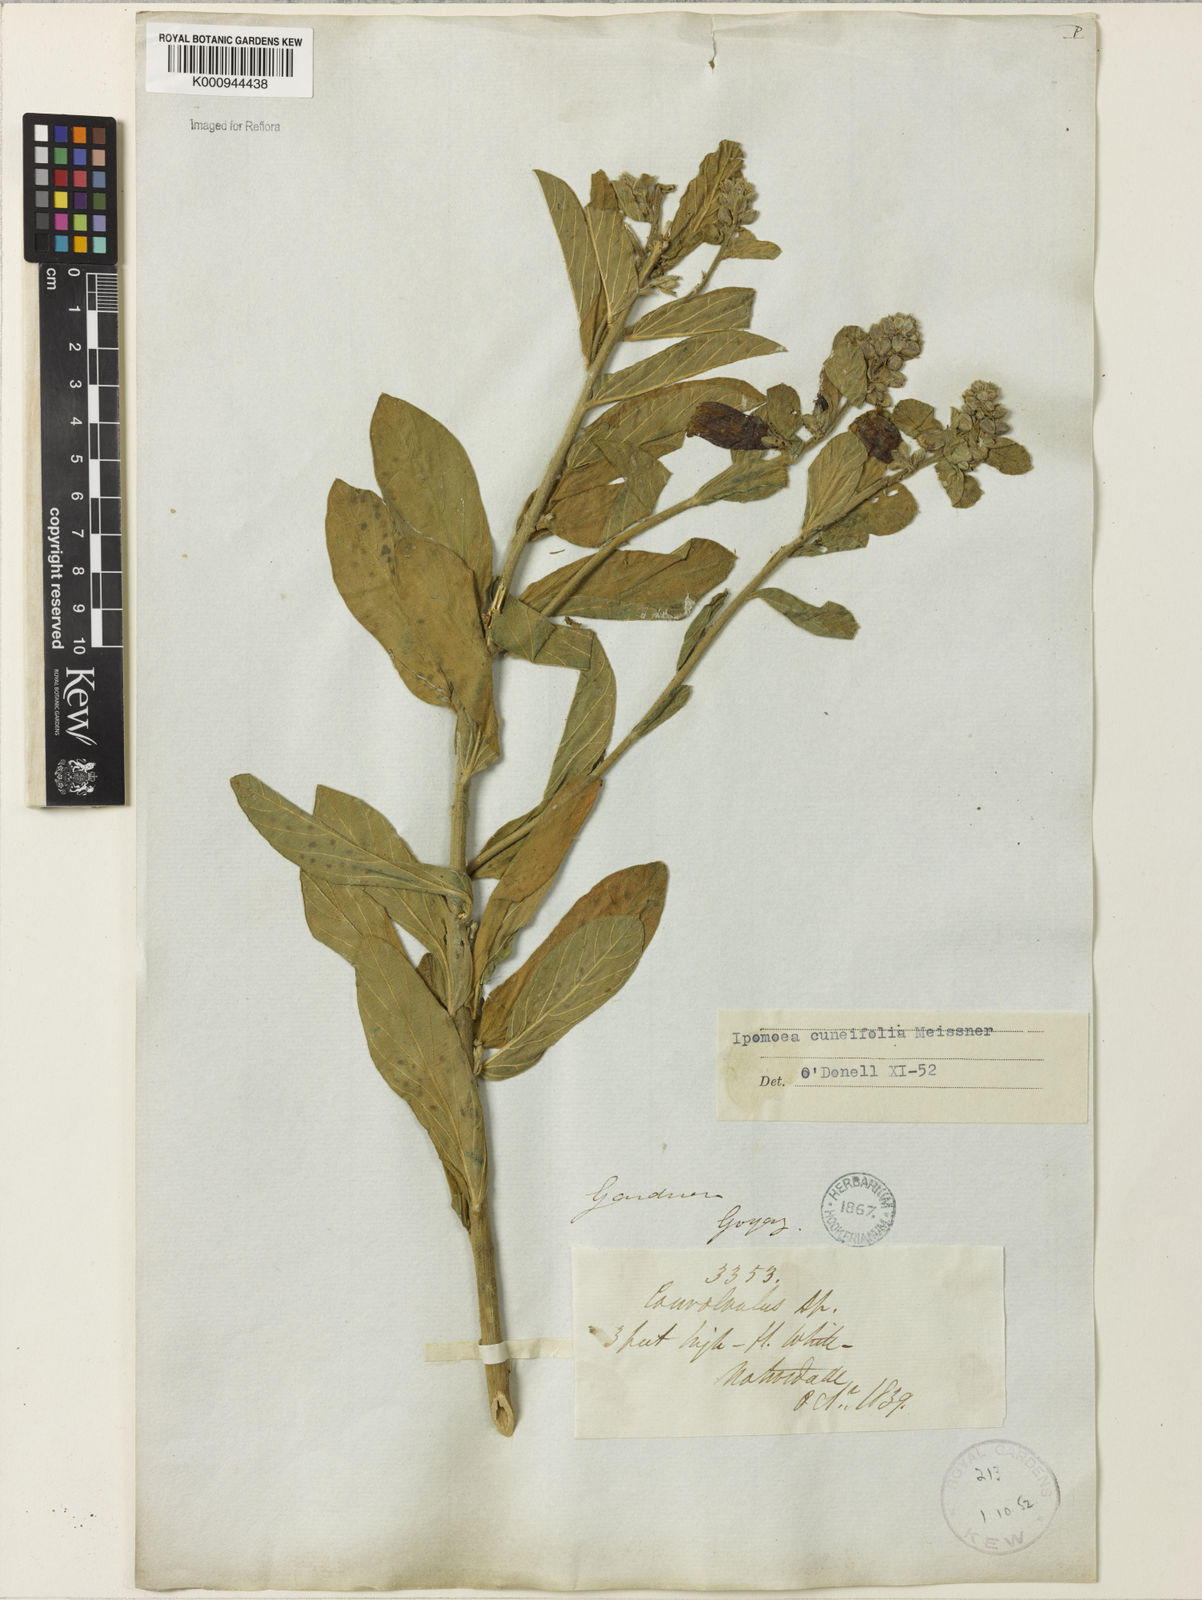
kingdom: Plantae
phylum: Tracheophyta
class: Magnoliopsida
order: Solanales
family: Convolvulaceae
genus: Ipomoea
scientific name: Ipomoea cuneifolia
